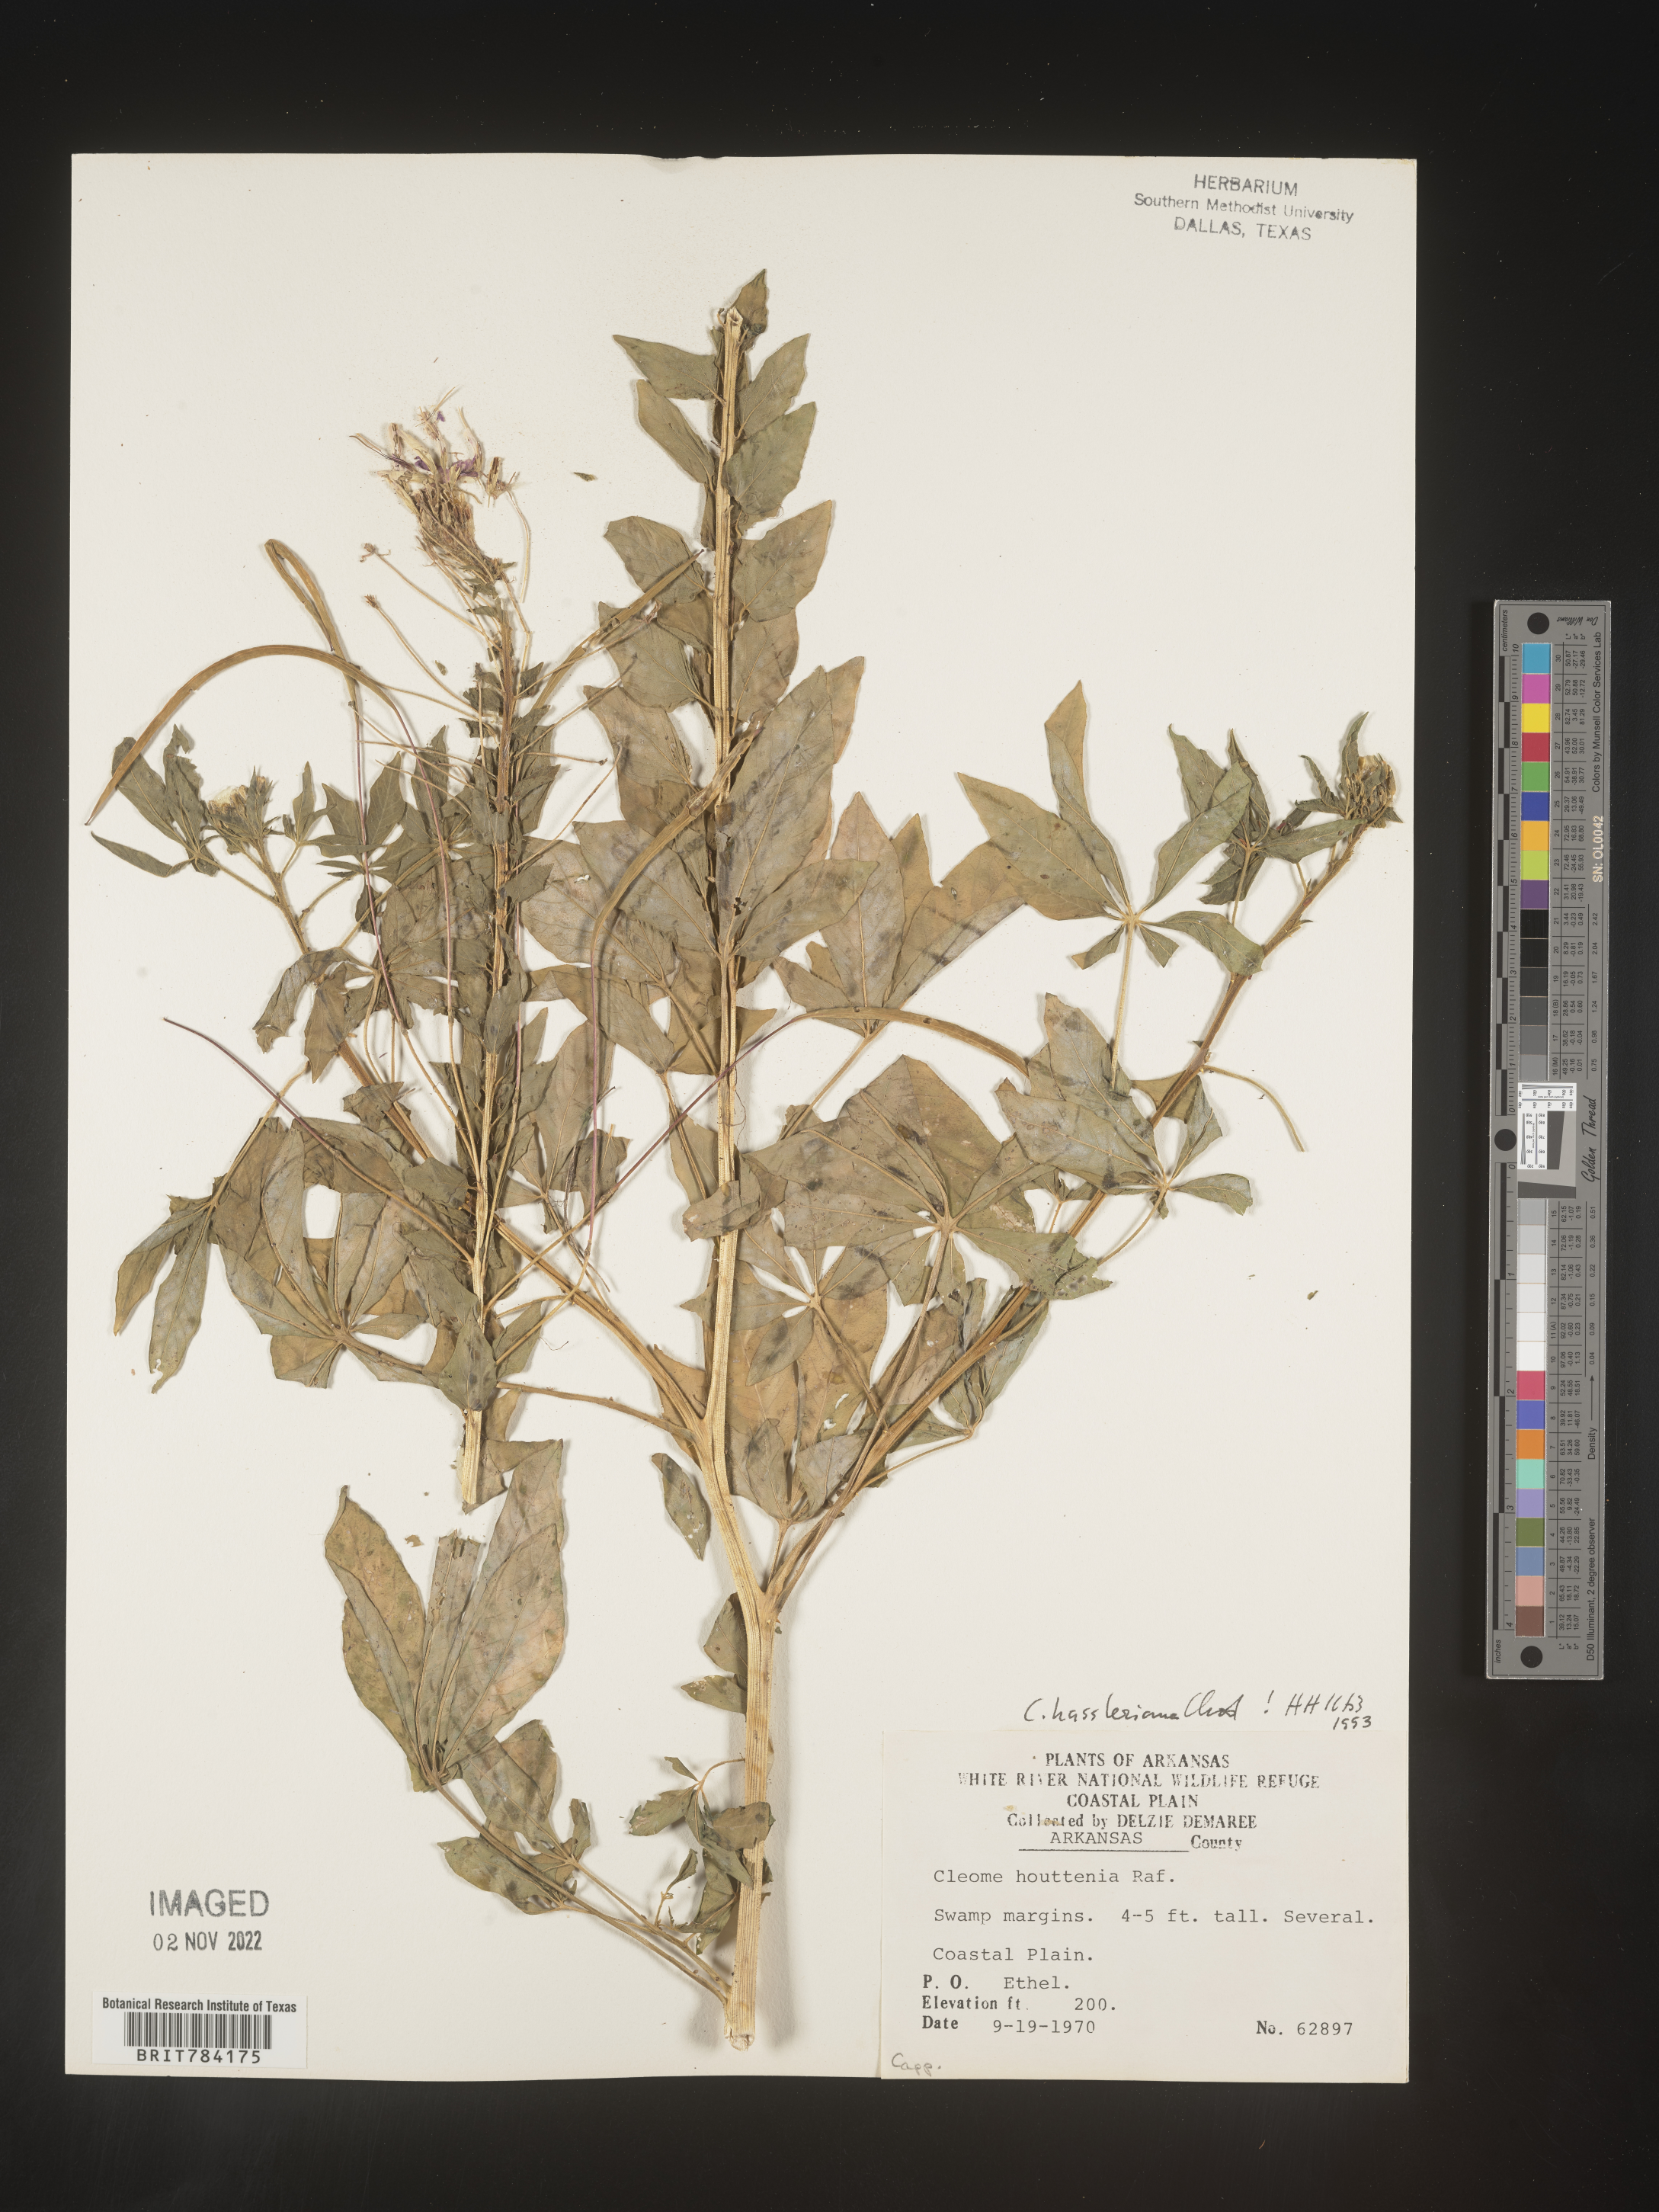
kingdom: Plantae
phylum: Tracheophyta
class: Magnoliopsida
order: Brassicales
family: Cleomaceae
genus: Cleome
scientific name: Cleome
